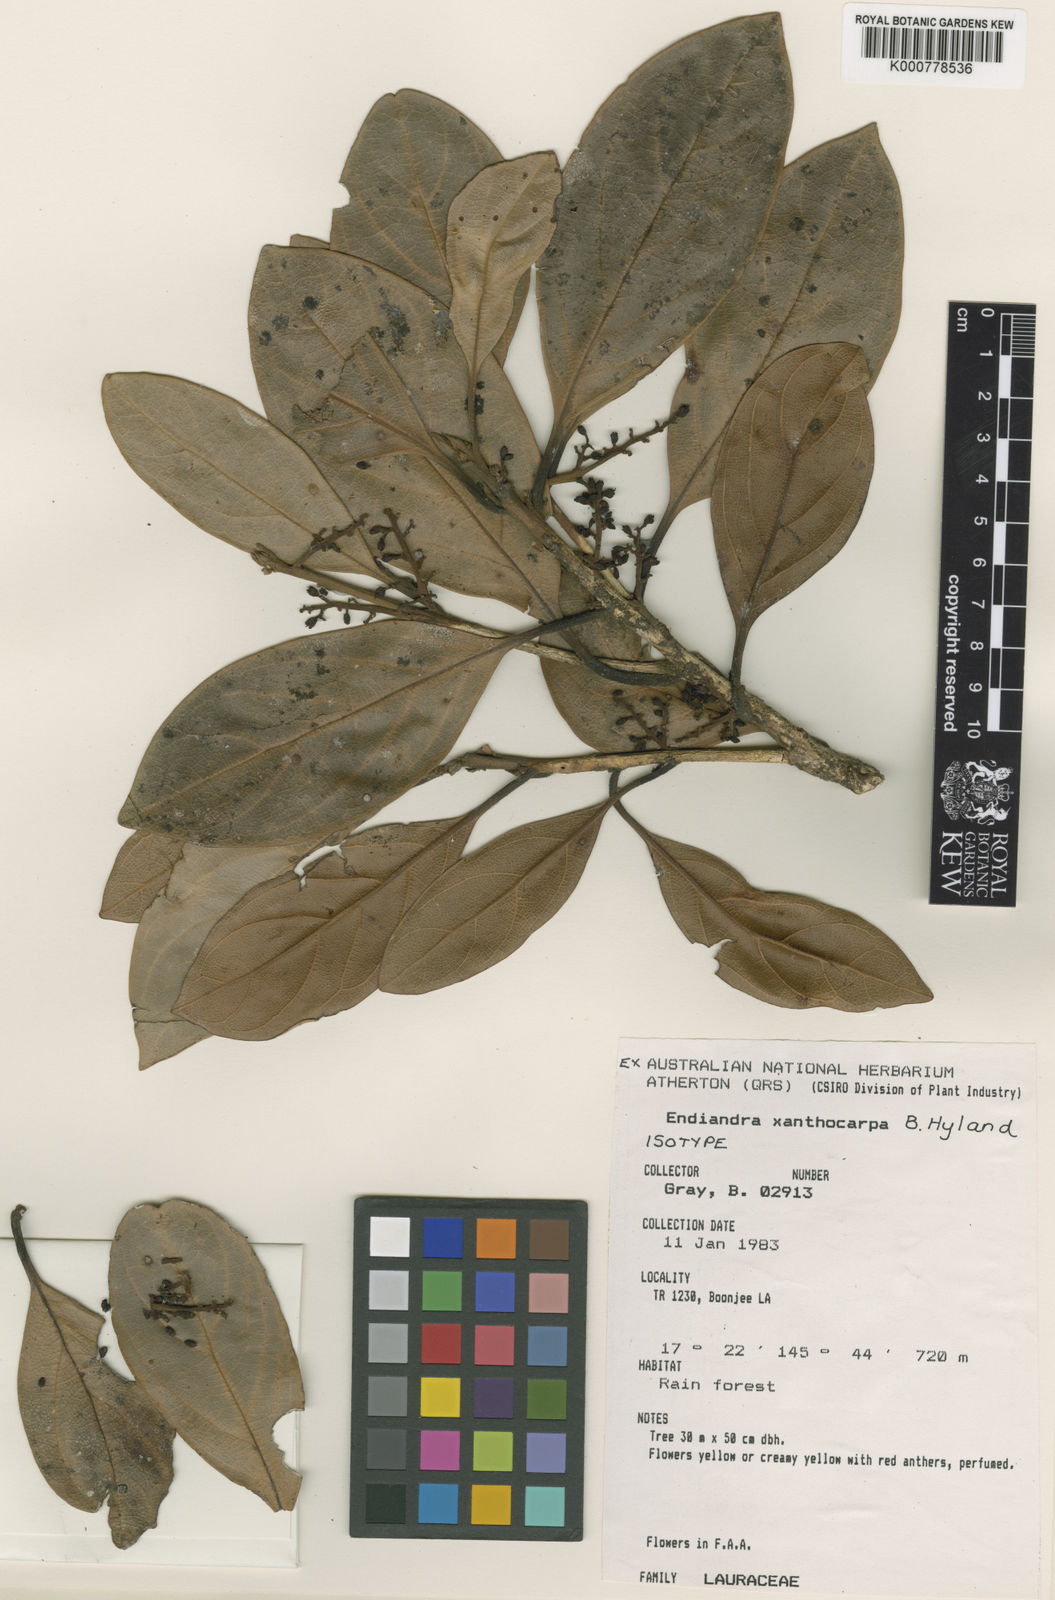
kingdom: Plantae
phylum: Tracheophyta
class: Magnoliopsida
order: Laurales
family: Lauraceae
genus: Endiandra
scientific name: Endiandra xanthocarpa
